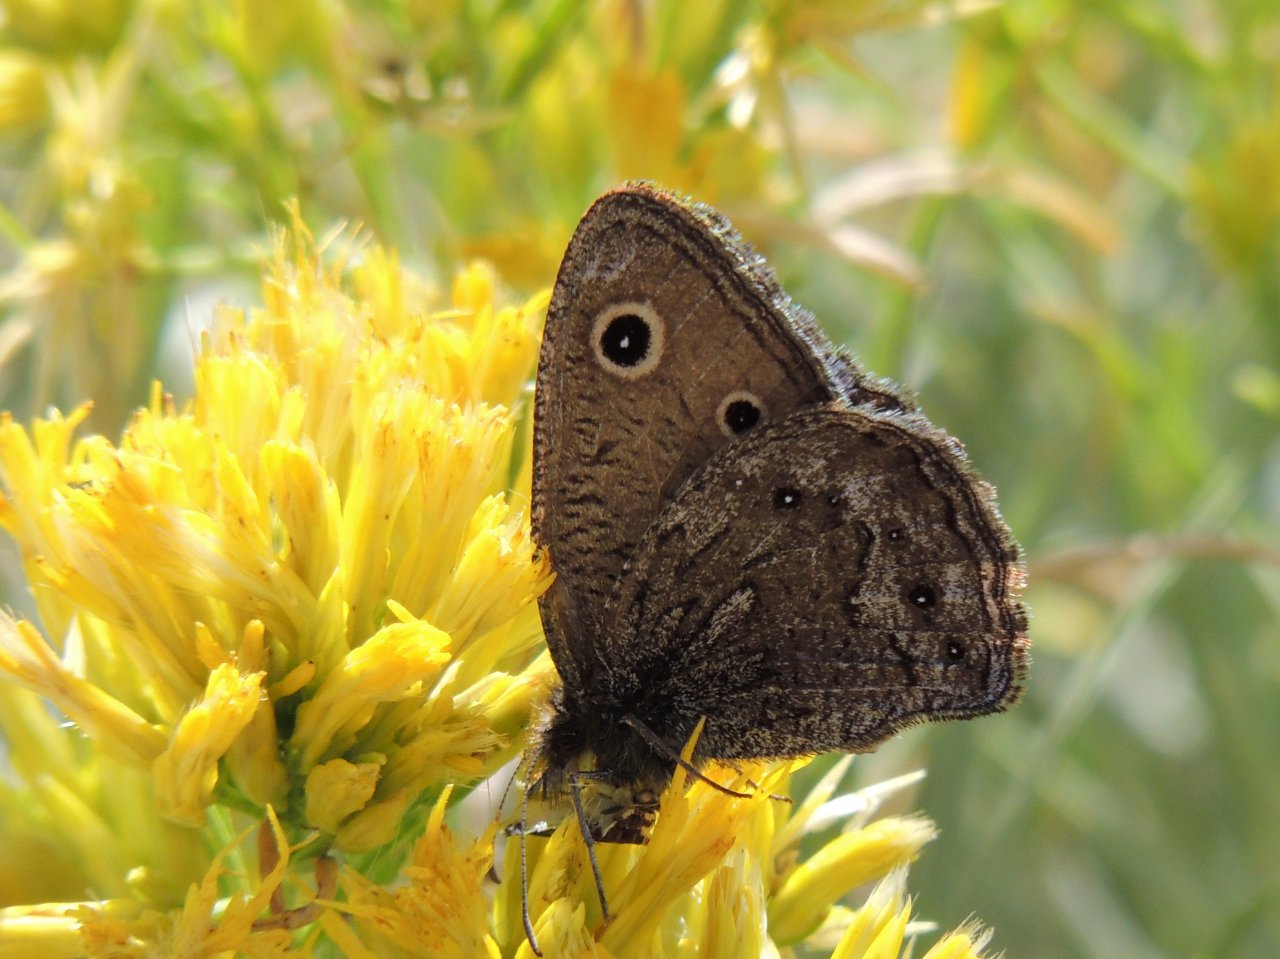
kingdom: Animalia
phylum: Arthropoda
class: Insecta
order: Lepidoptera
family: Nymphalidae
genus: Cercyonis
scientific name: Cercyonis oetus
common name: Small Wood-Nymph
